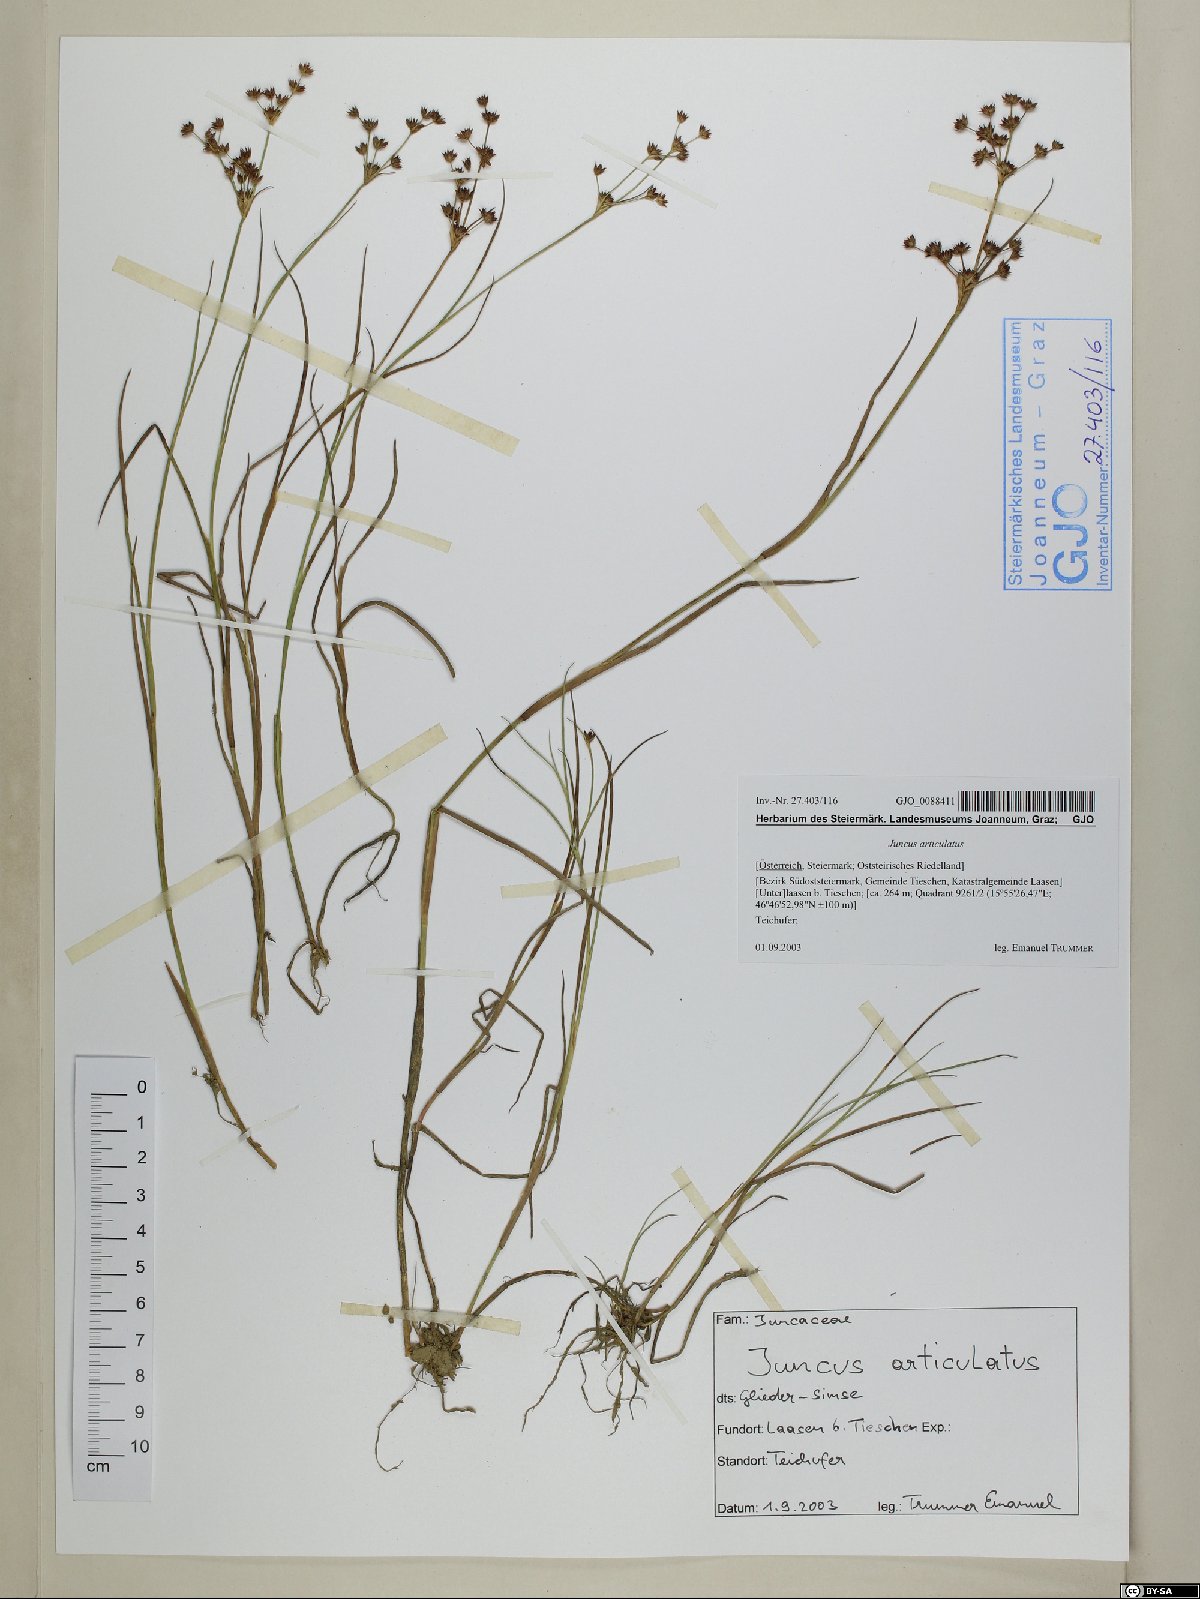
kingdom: Plantae
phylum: Tracheophyta
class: Liliopsida
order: Poales
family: Juncaceae
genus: Juncus
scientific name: Juncus articulatus
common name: Jointed rush
